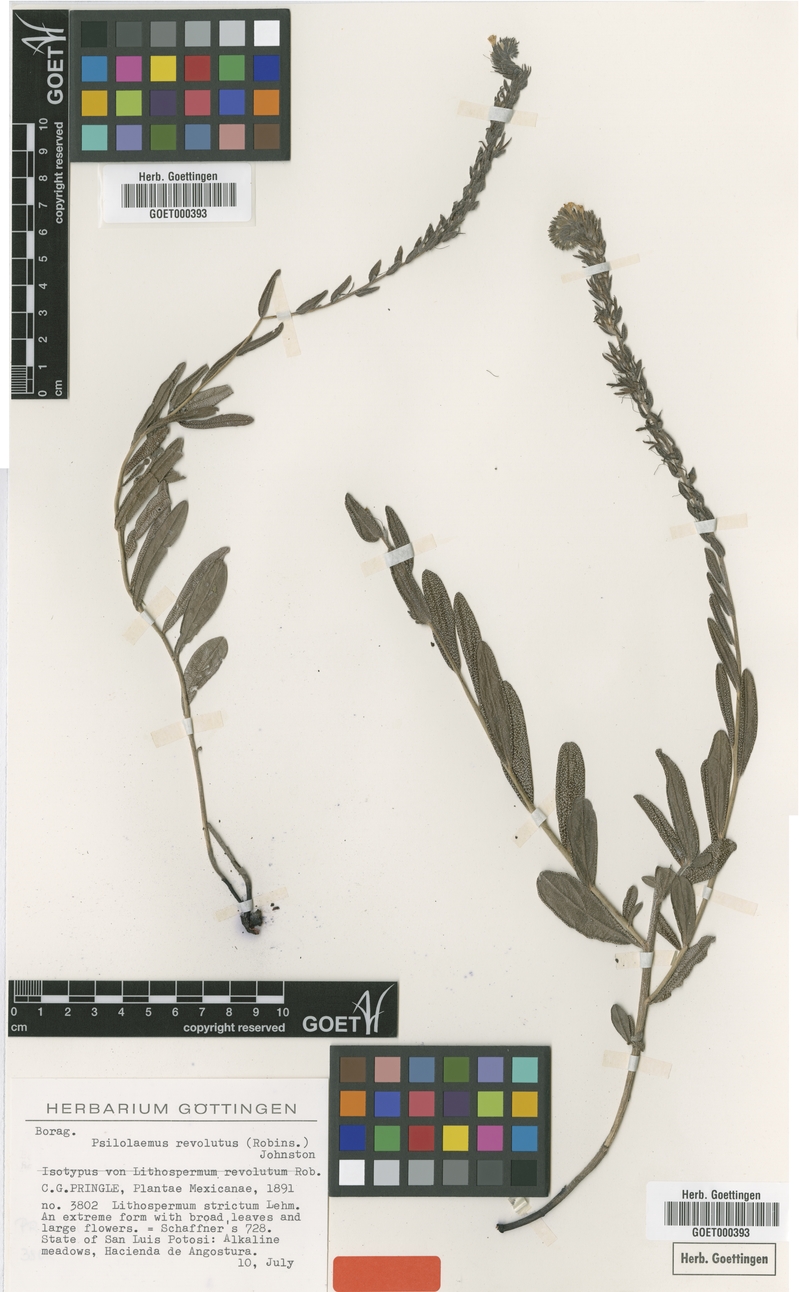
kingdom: Plantae
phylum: Tracheophyta
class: Magnoliopsida
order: Boraginales
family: Boraginaceae
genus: Lithospermum
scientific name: Lithospermum revolutum
